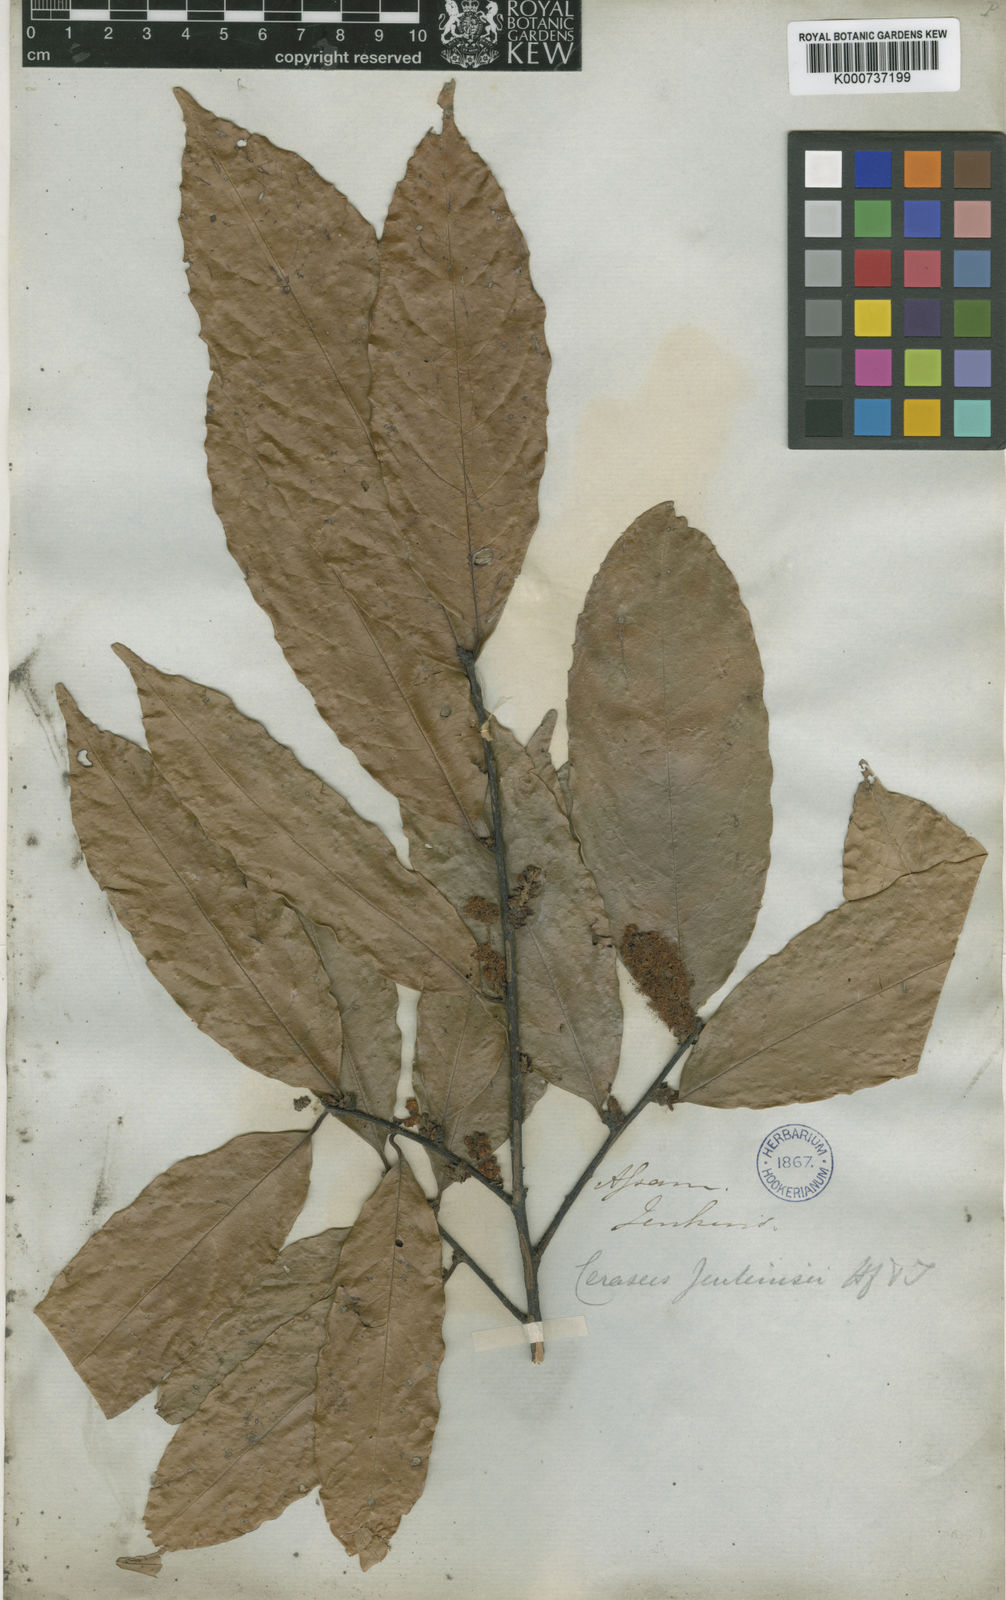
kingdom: Plantae
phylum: Tracheophyta
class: Magnoliopsida
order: Rosales
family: Rosaceae
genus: Prunus
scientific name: Prunus jenkinsii
